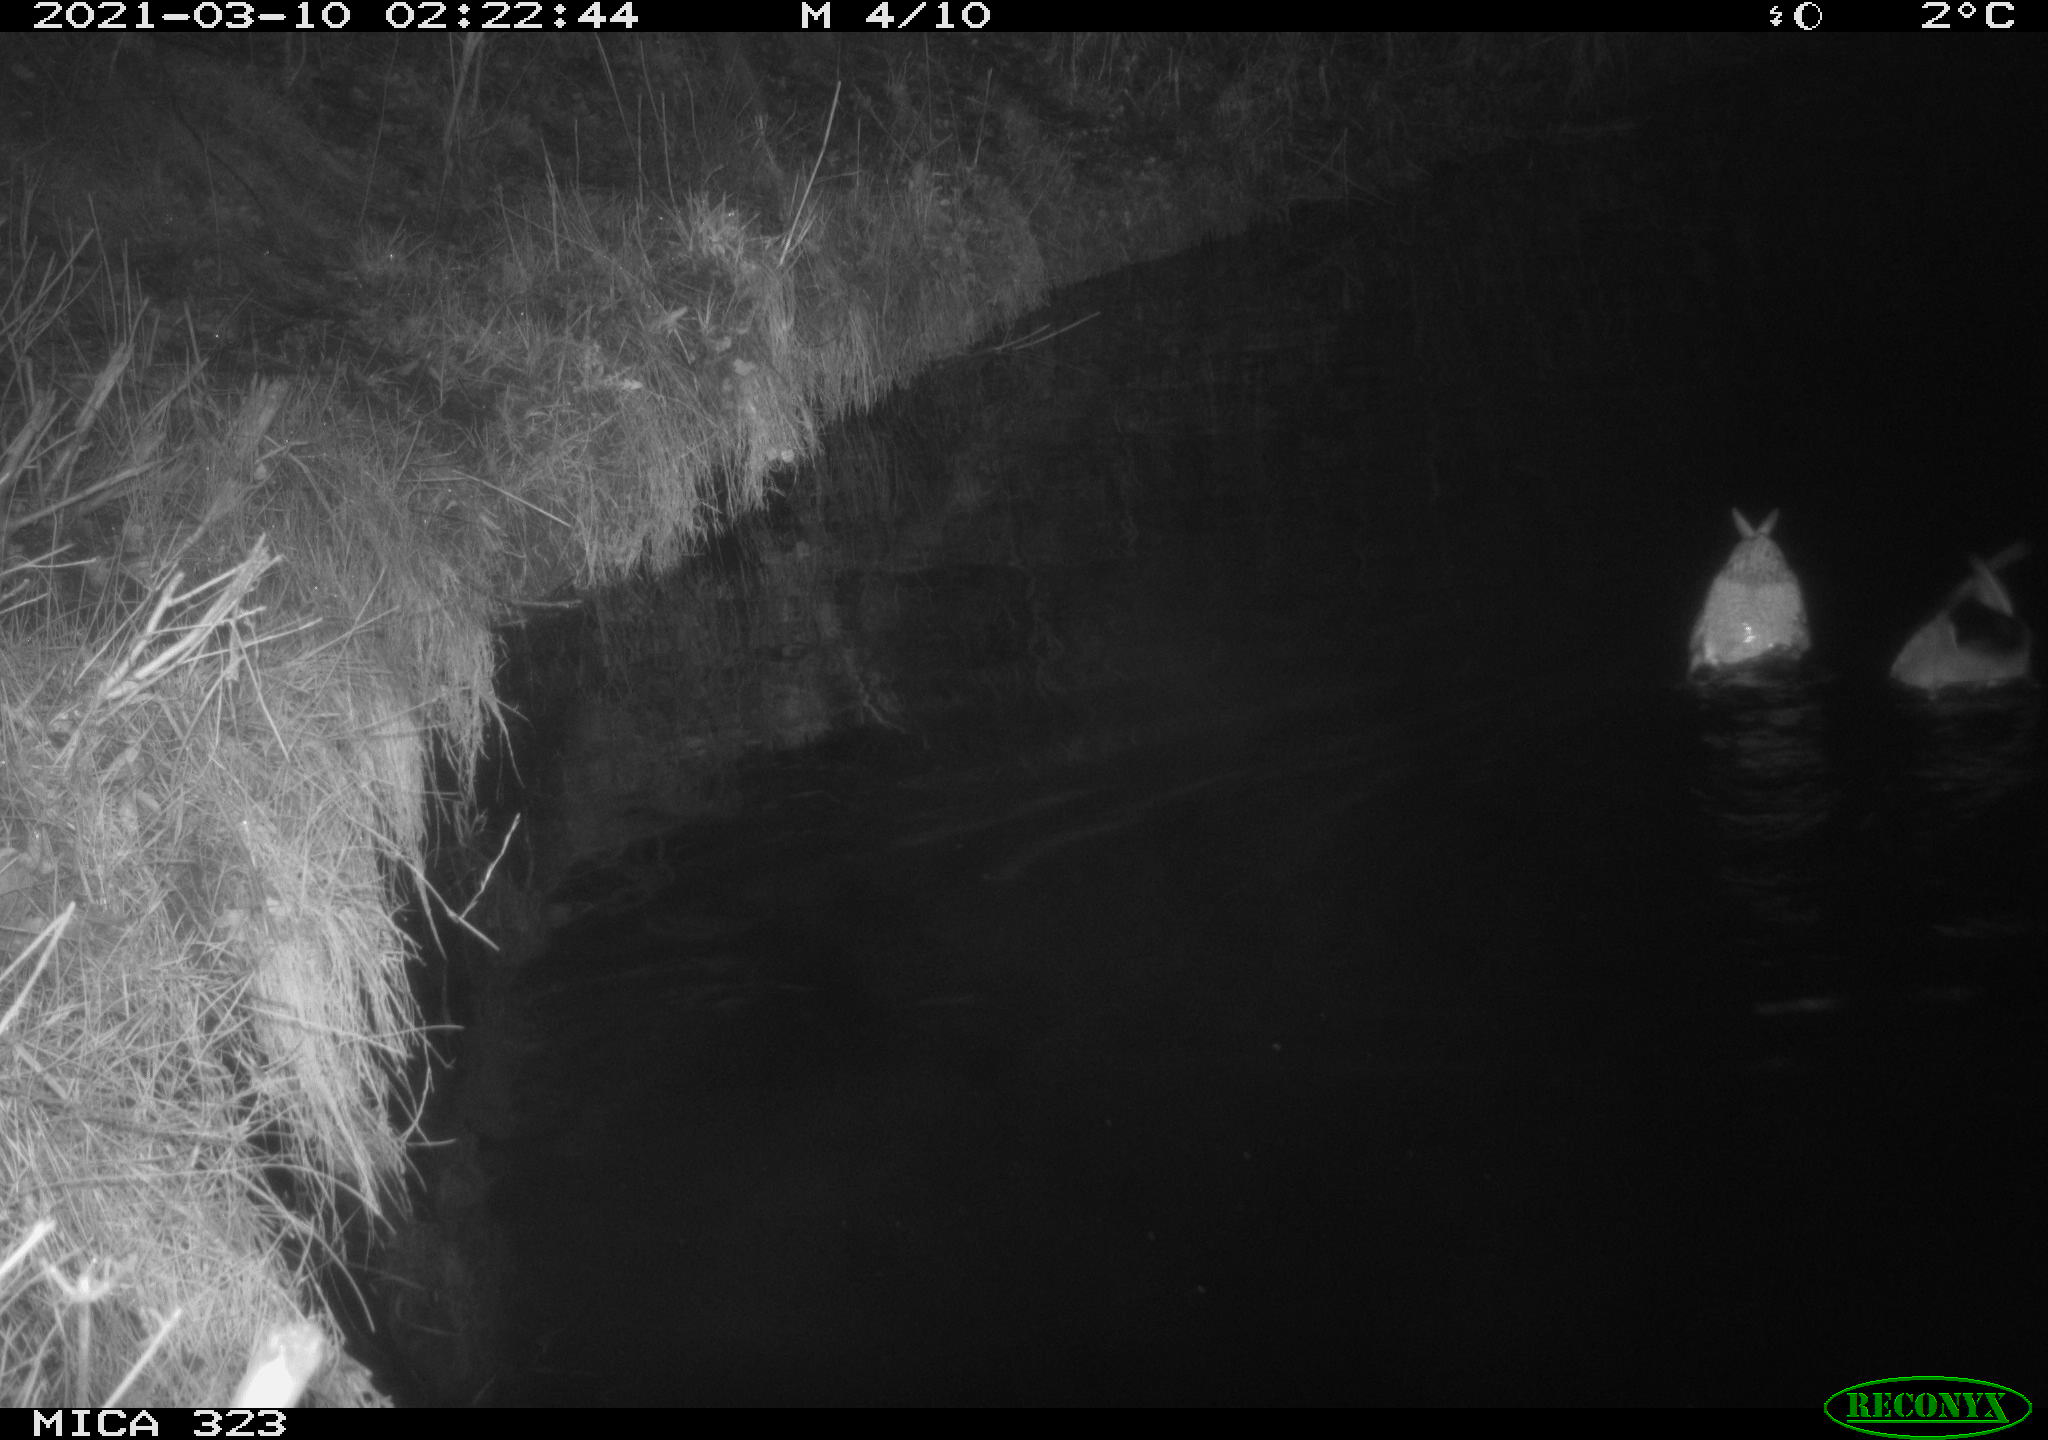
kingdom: Animalia
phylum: Chordata
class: Aves
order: Anseriformes
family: Anatidae
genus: Anas
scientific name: Anas platyrhynchos
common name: Mallard
